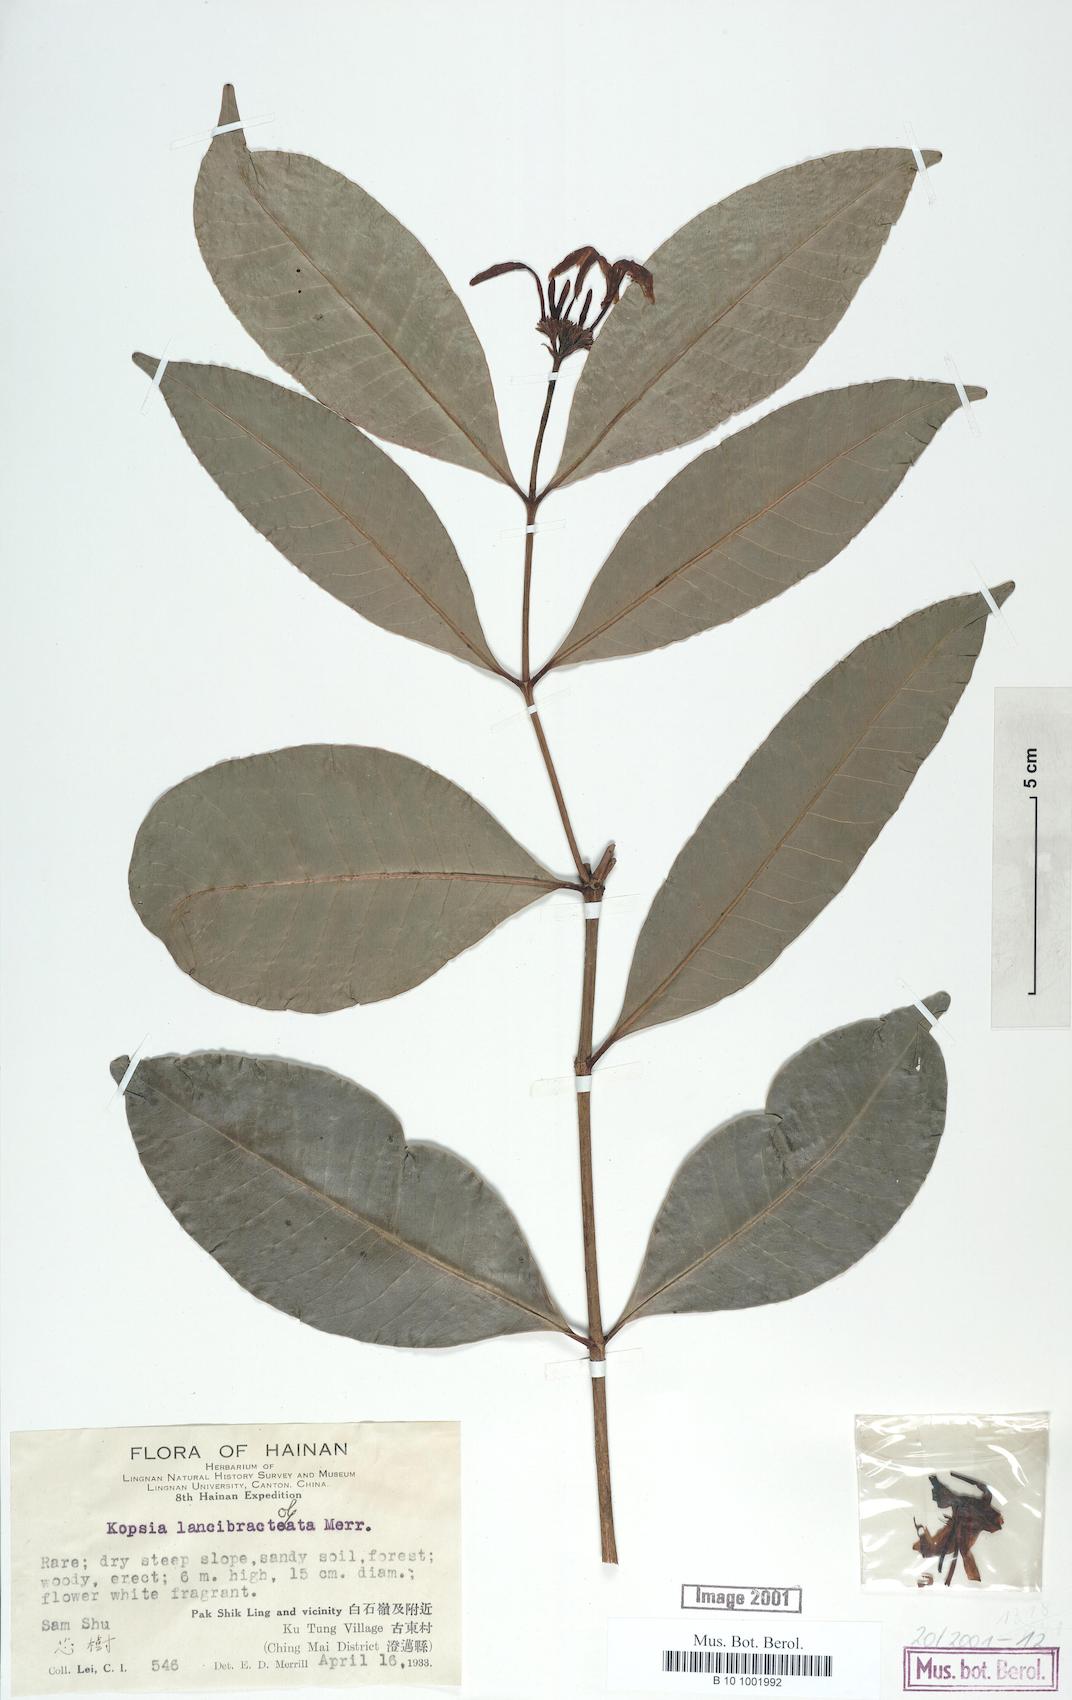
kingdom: Plantae
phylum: Tracheophyta
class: Magnoliopsida
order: Gentianales
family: Apocynaceae
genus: Kopsia
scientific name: Kopsia arborea
